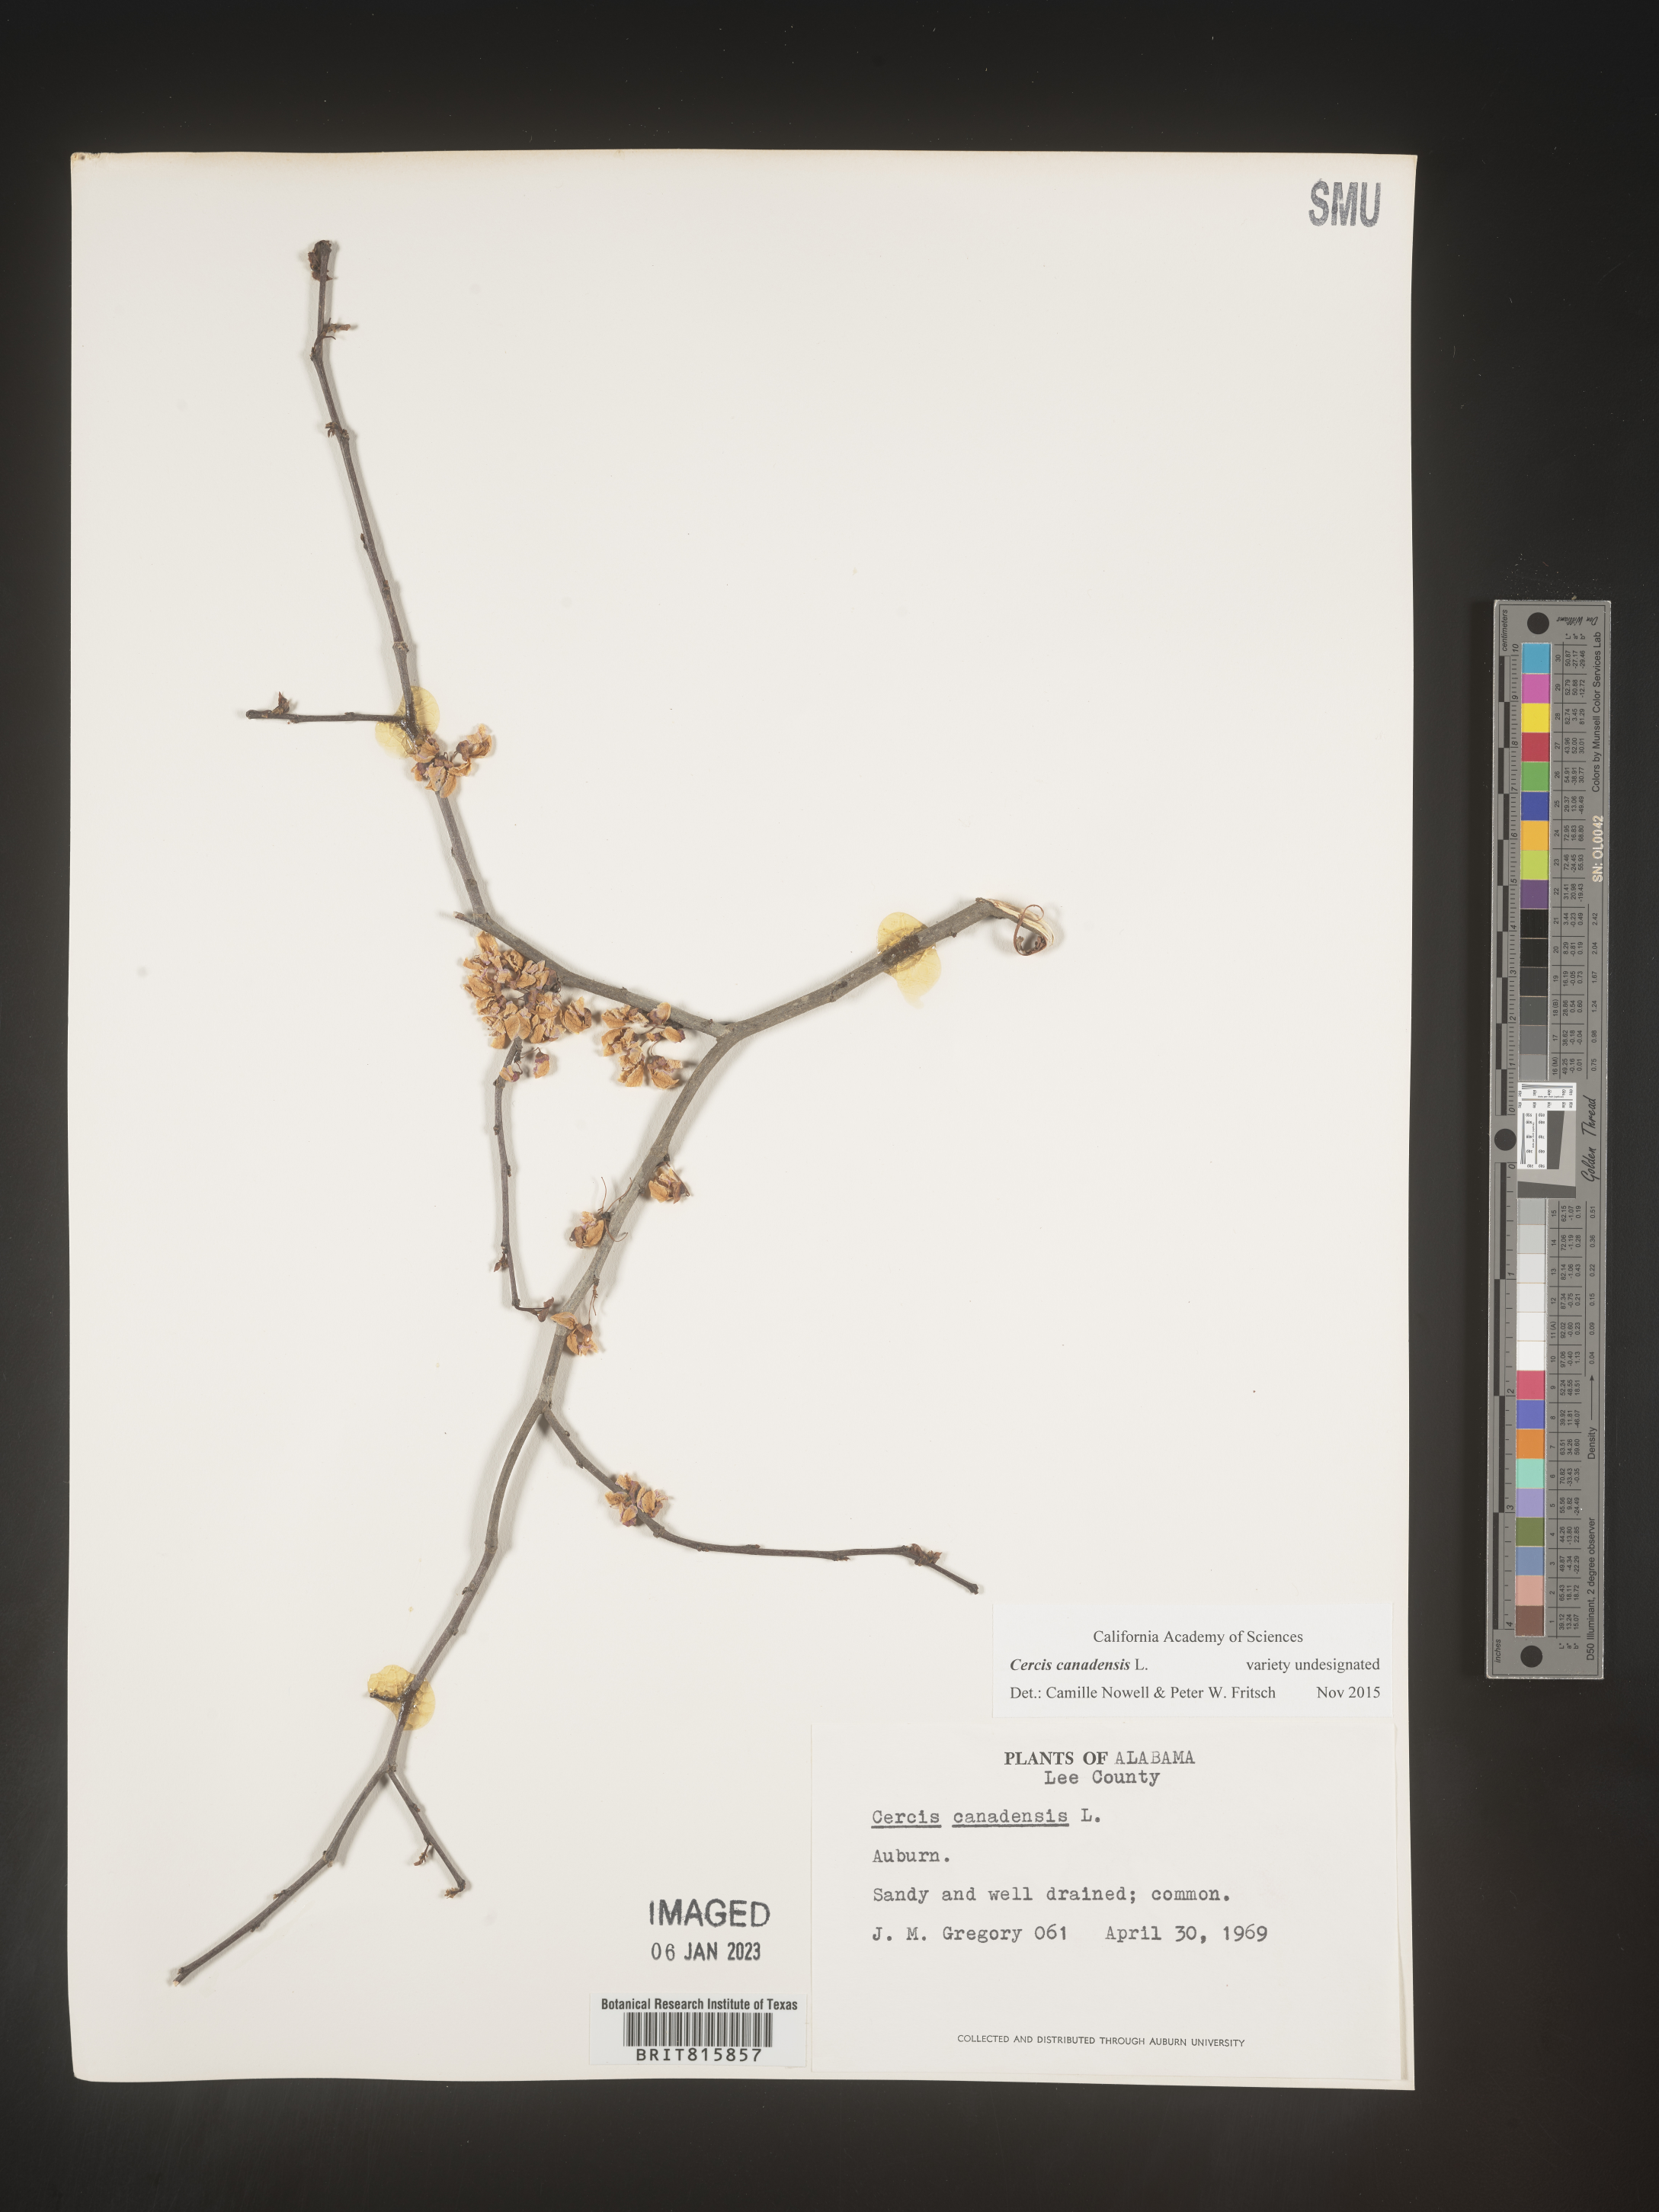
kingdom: Plantae
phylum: Tracheophyta
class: Magnoliopsida
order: Fabales
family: Fabaceae
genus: Cercis
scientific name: Cercis canadensis
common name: Eastern redbud
